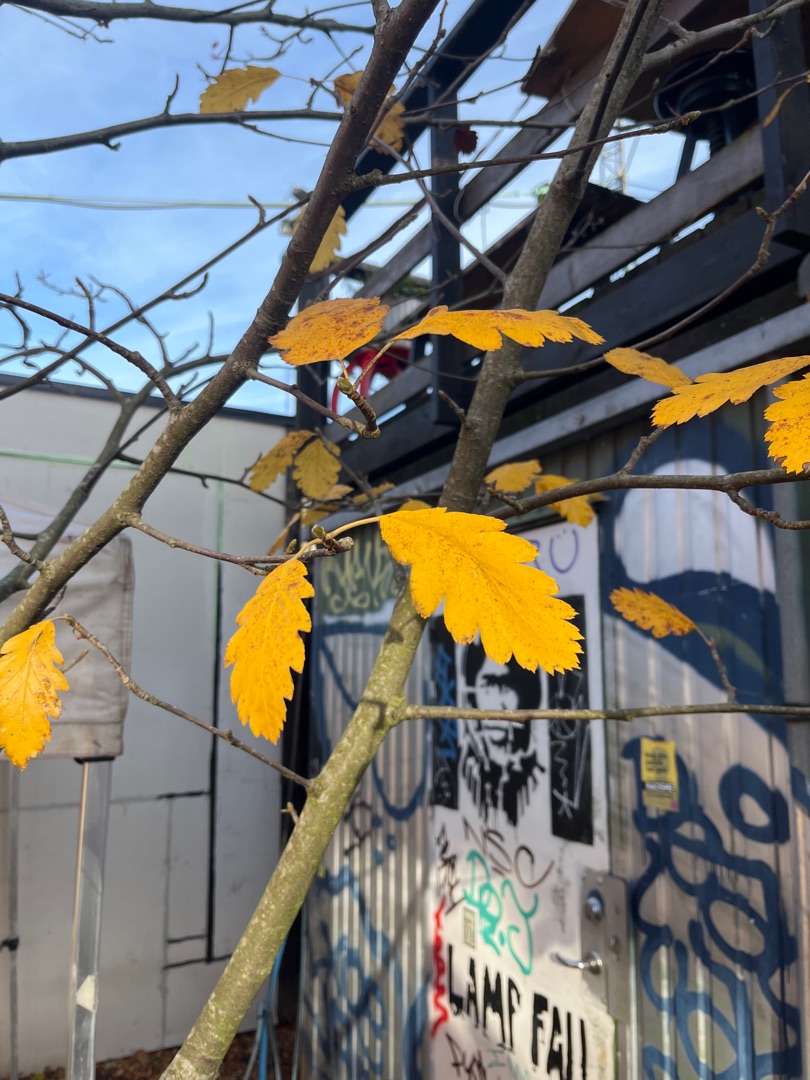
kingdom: Plantae
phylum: Tracheophyta
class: Magnoliopsida
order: Rosales
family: Rosaceae
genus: Scandosorbus
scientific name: Scandosorbus intermedia
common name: Selje-røn
